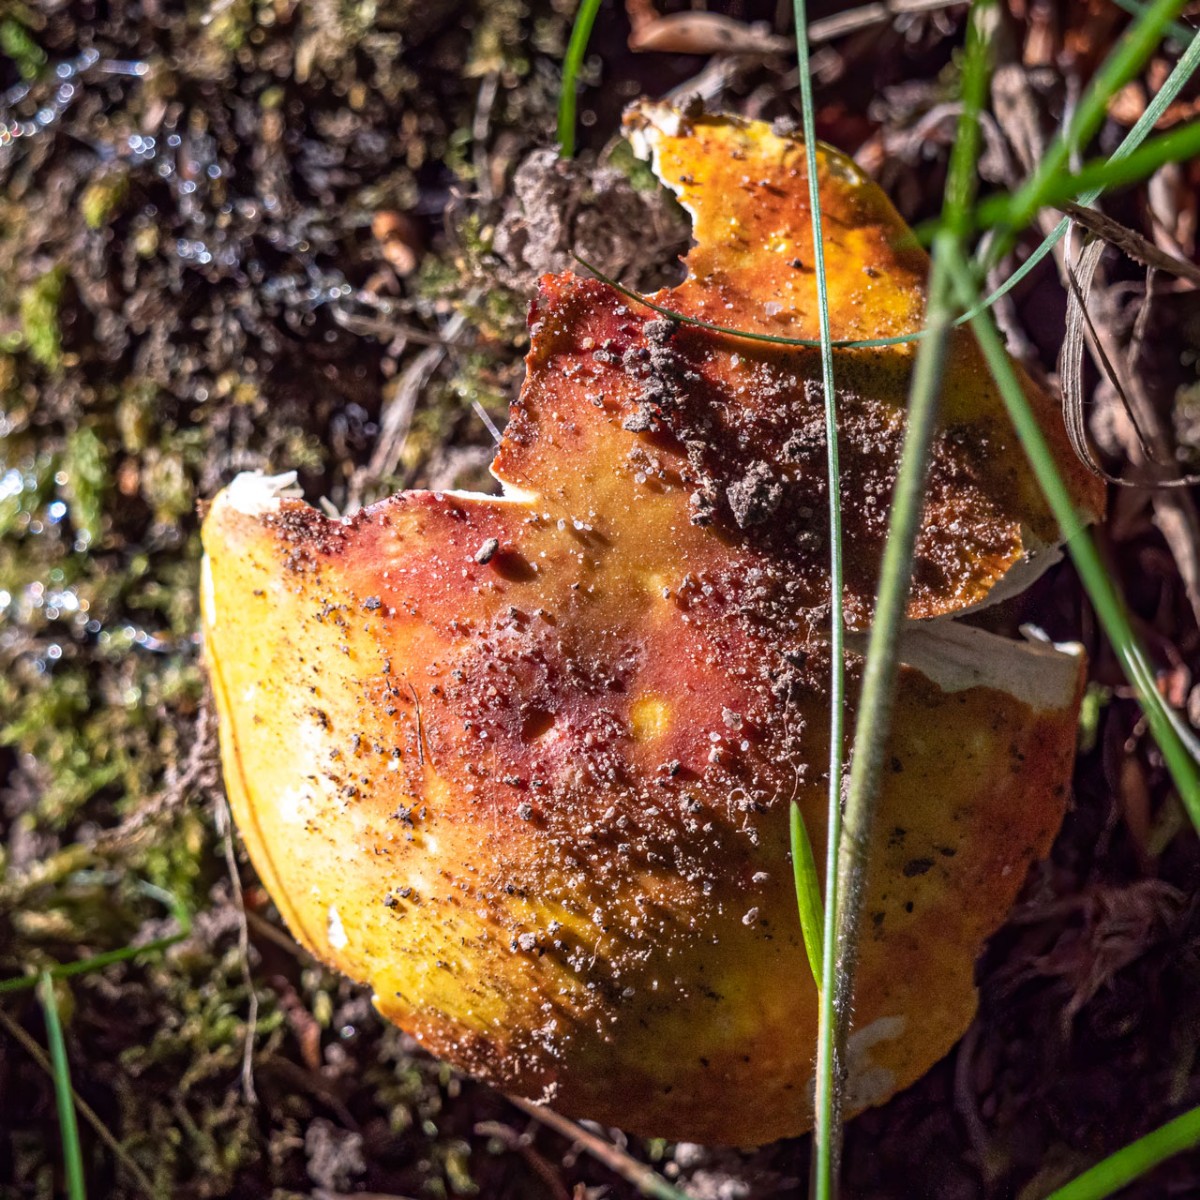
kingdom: Fungi
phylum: Basidiomycota
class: Agaricomycetes
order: Russulales
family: Russulaceae
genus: Russula
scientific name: Russula aurea
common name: gylden skørhat
